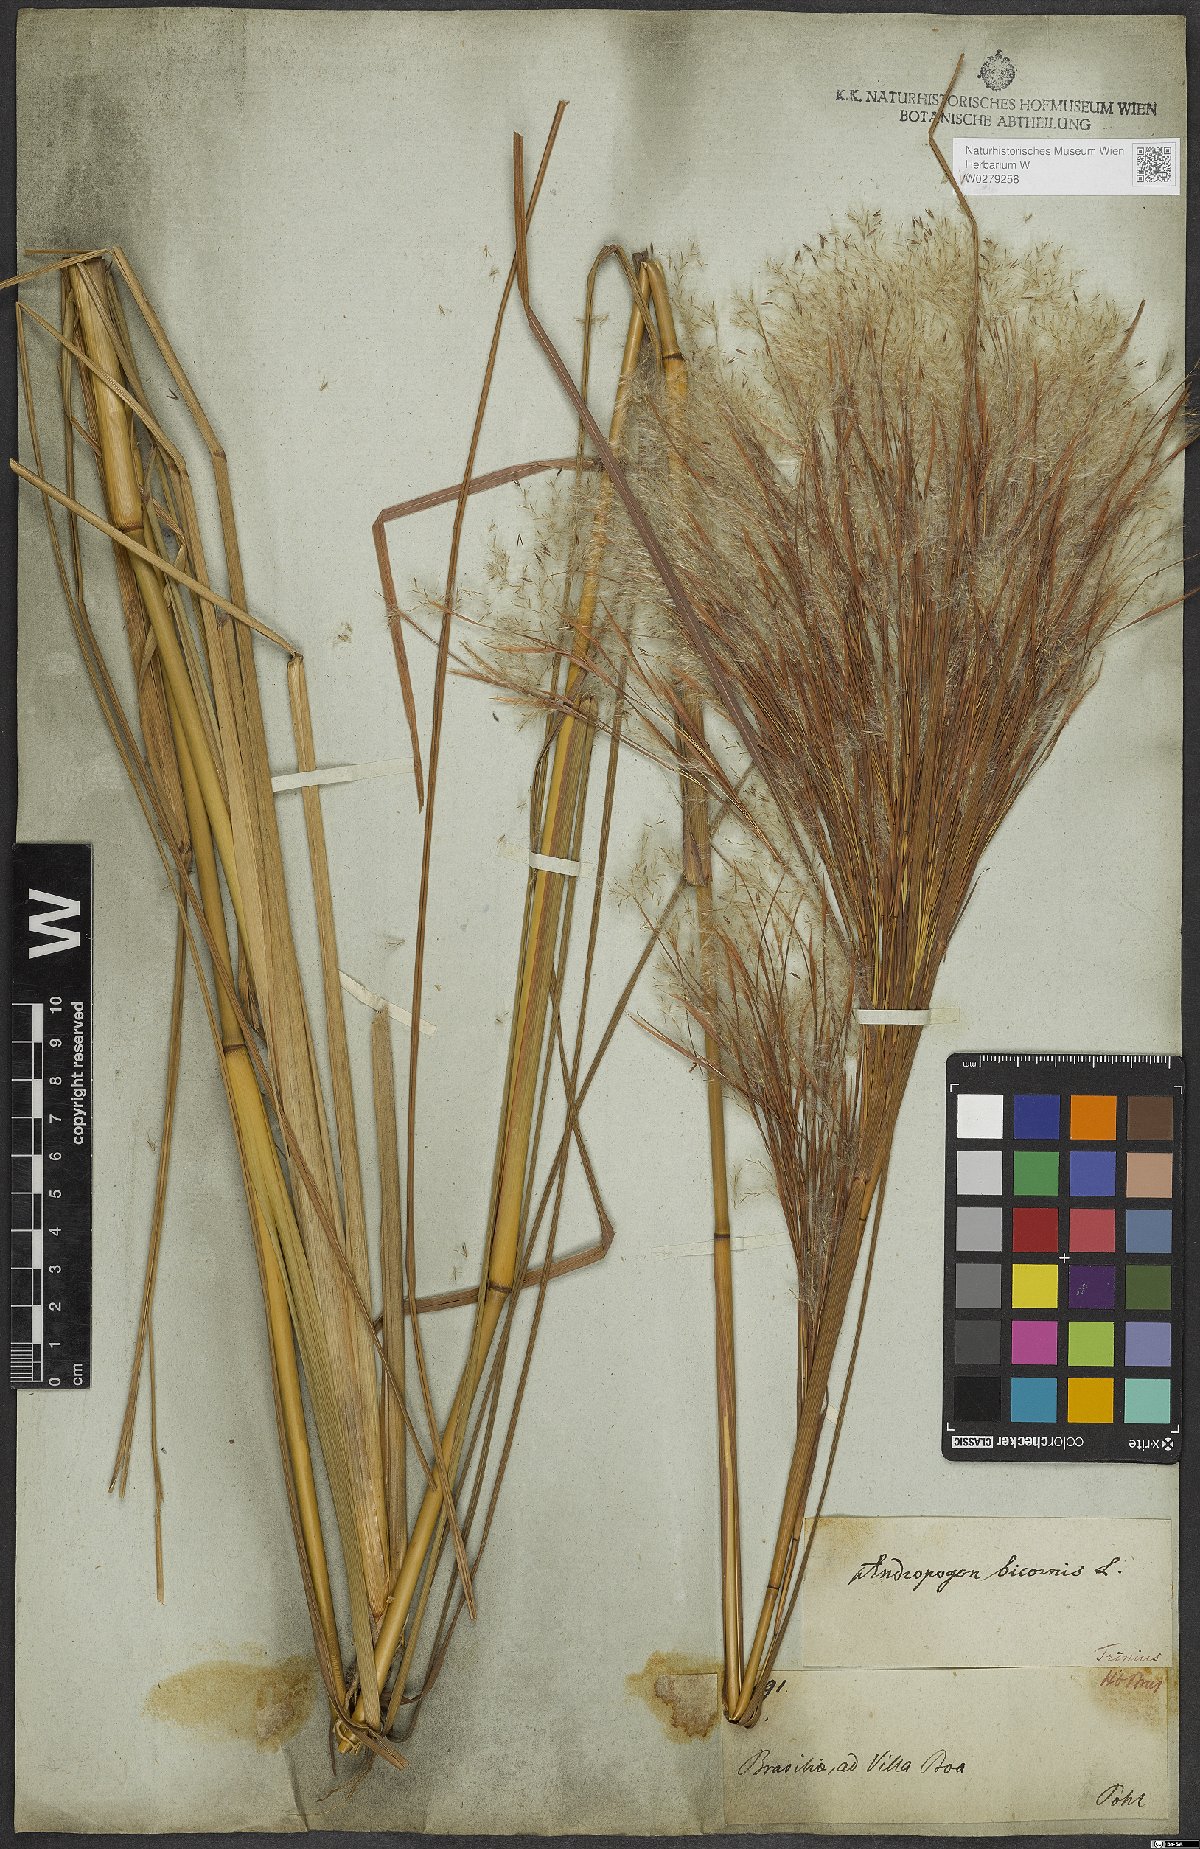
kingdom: Plantae
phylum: Tracheophyta
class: Liliopsida
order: Poales
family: Poaceae
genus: Andropogon
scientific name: Andropogon bicornis
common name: West indian foxtail grass
